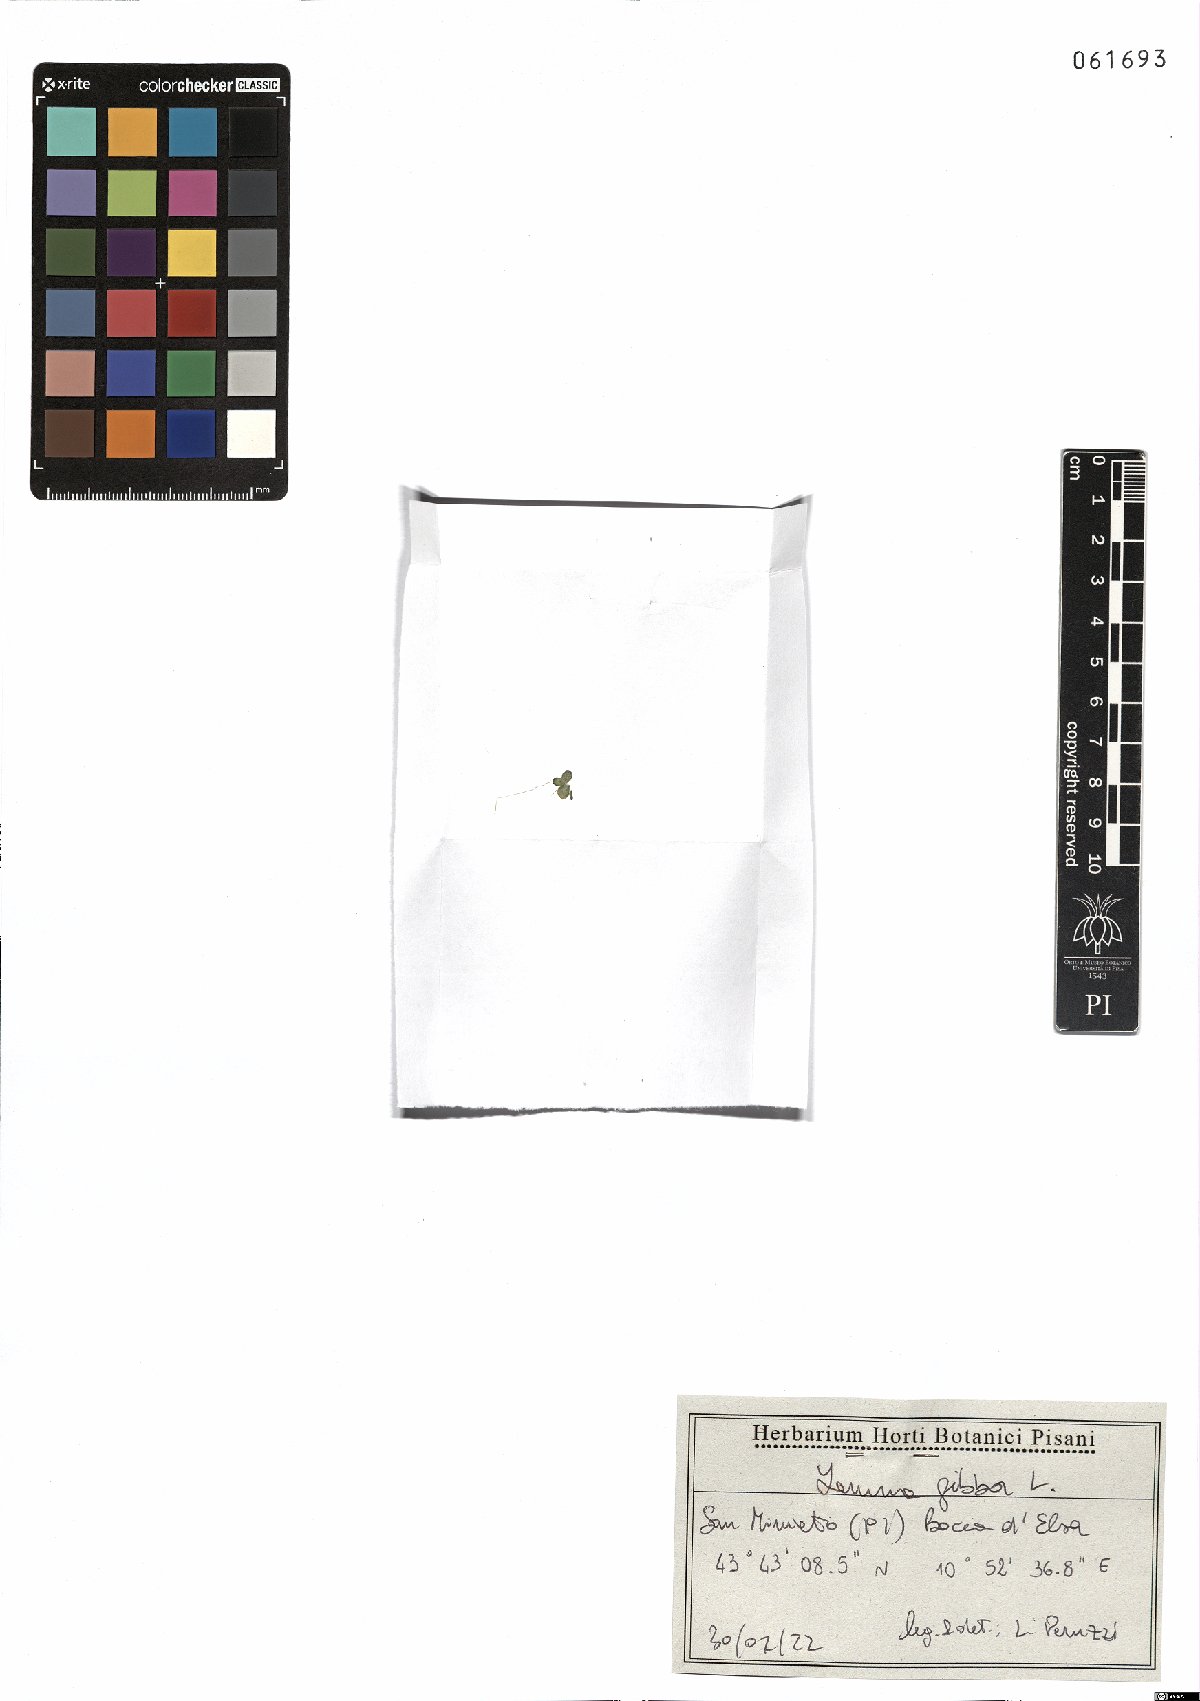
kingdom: Plantae
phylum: Tracheophyta
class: Liliopsida
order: Alismatales
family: Araceae
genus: Lemna
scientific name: Lemna gibba
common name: Fat duckweed
